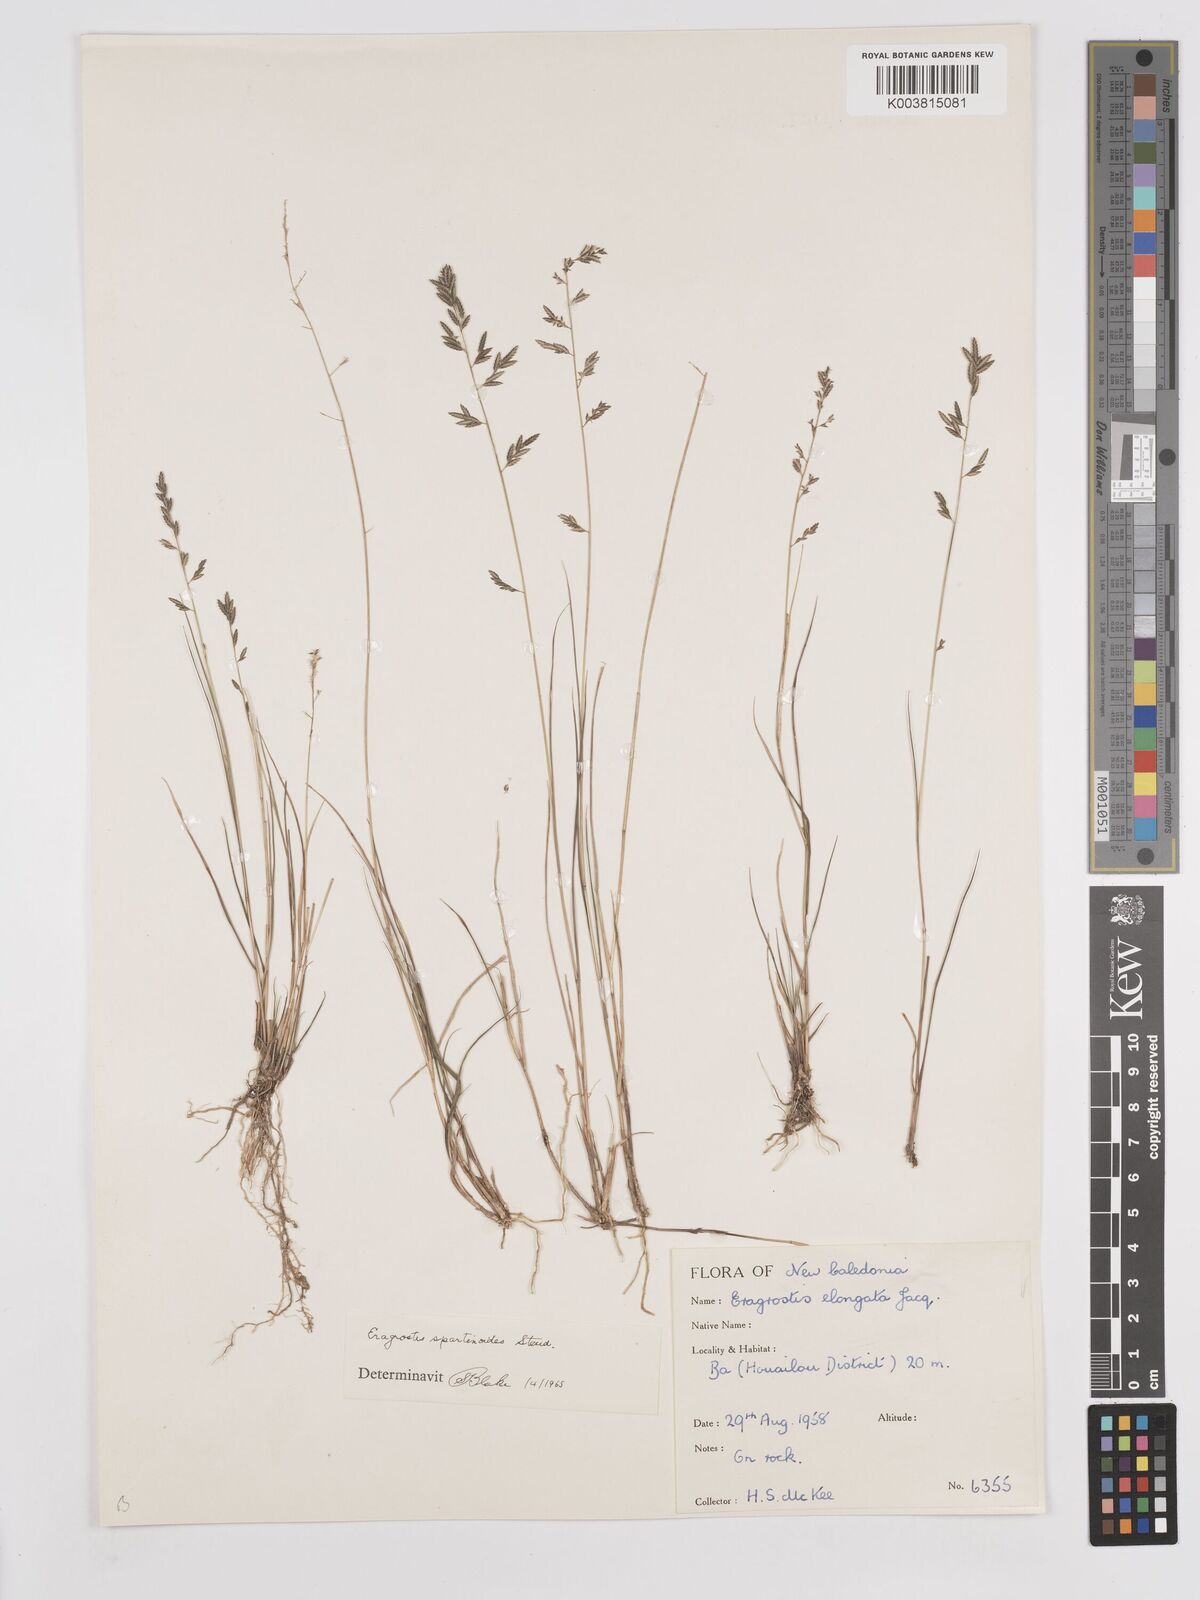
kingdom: Plantae
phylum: Tracheophyta
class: Liliopsida
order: Poales
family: Poaceae
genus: Eragrostis
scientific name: Eragrostis brownii
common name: Lovegrass
